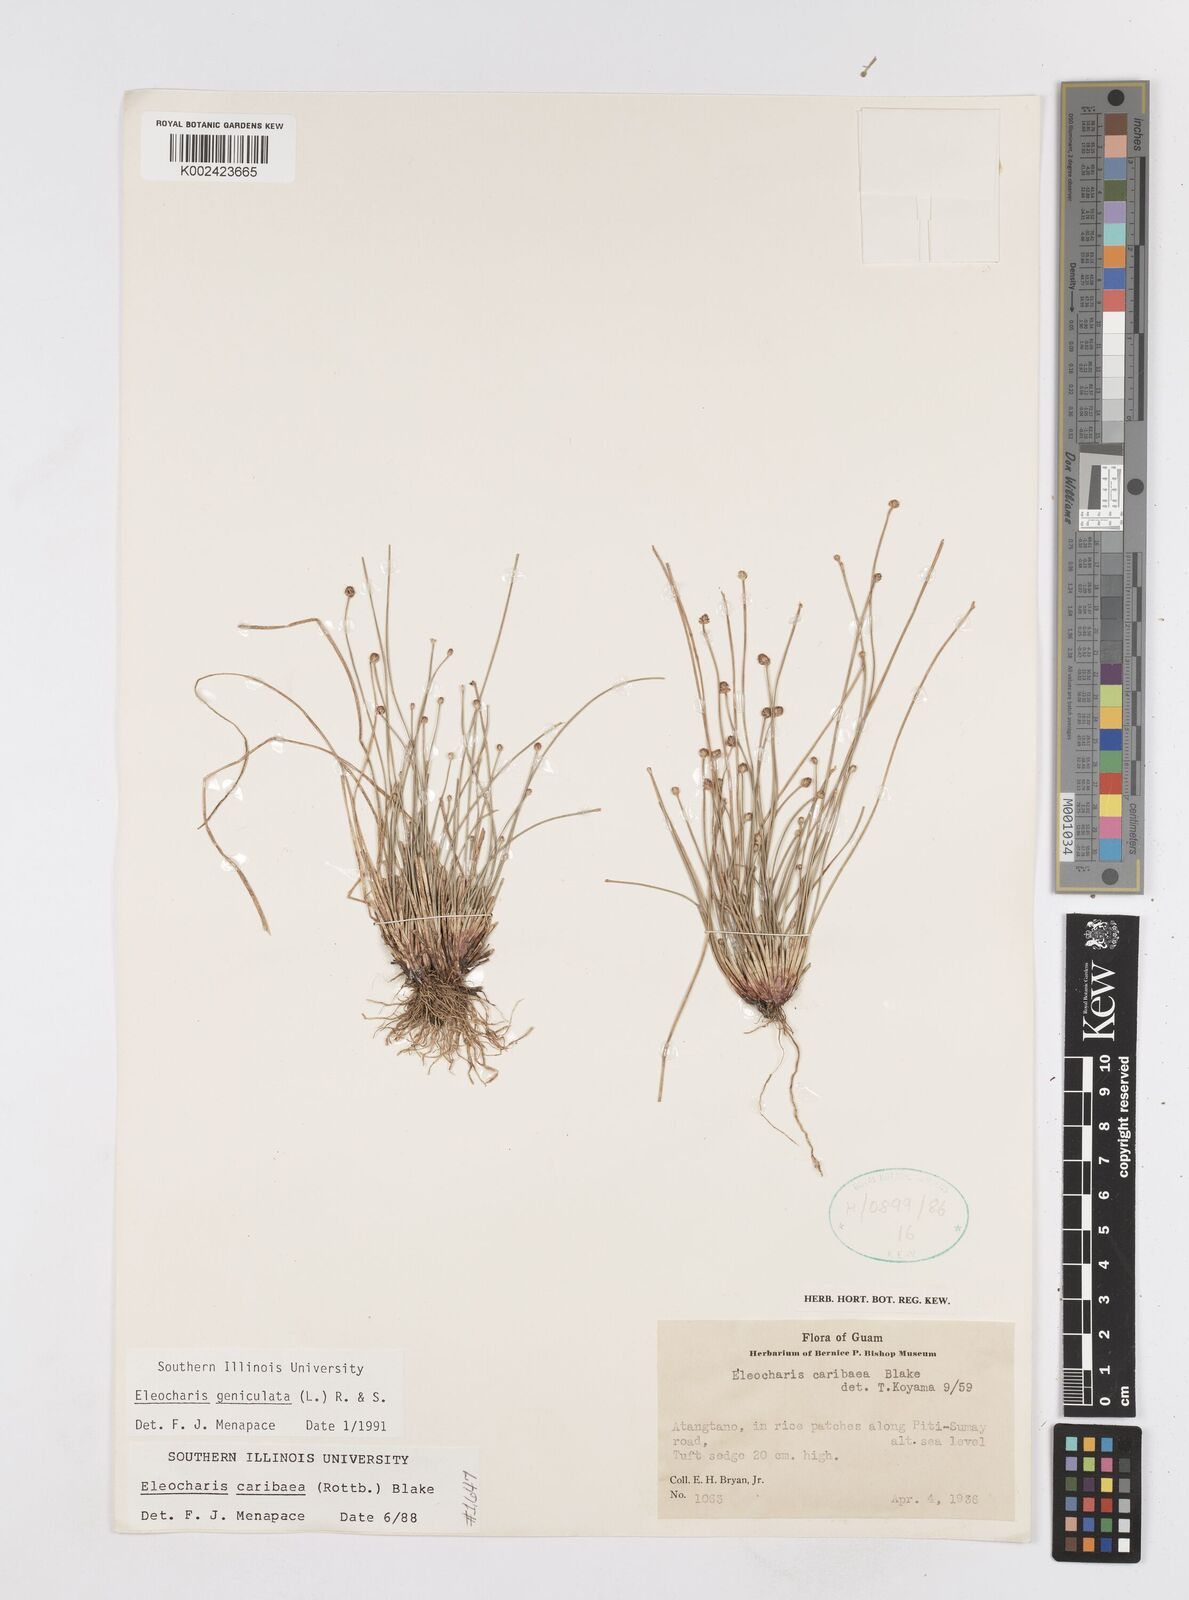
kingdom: Plantae
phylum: Tracheophyta
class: Liliopsida
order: Poales
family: Cyperaceae
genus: Eleocharis
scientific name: Eleocharis philippinensis
